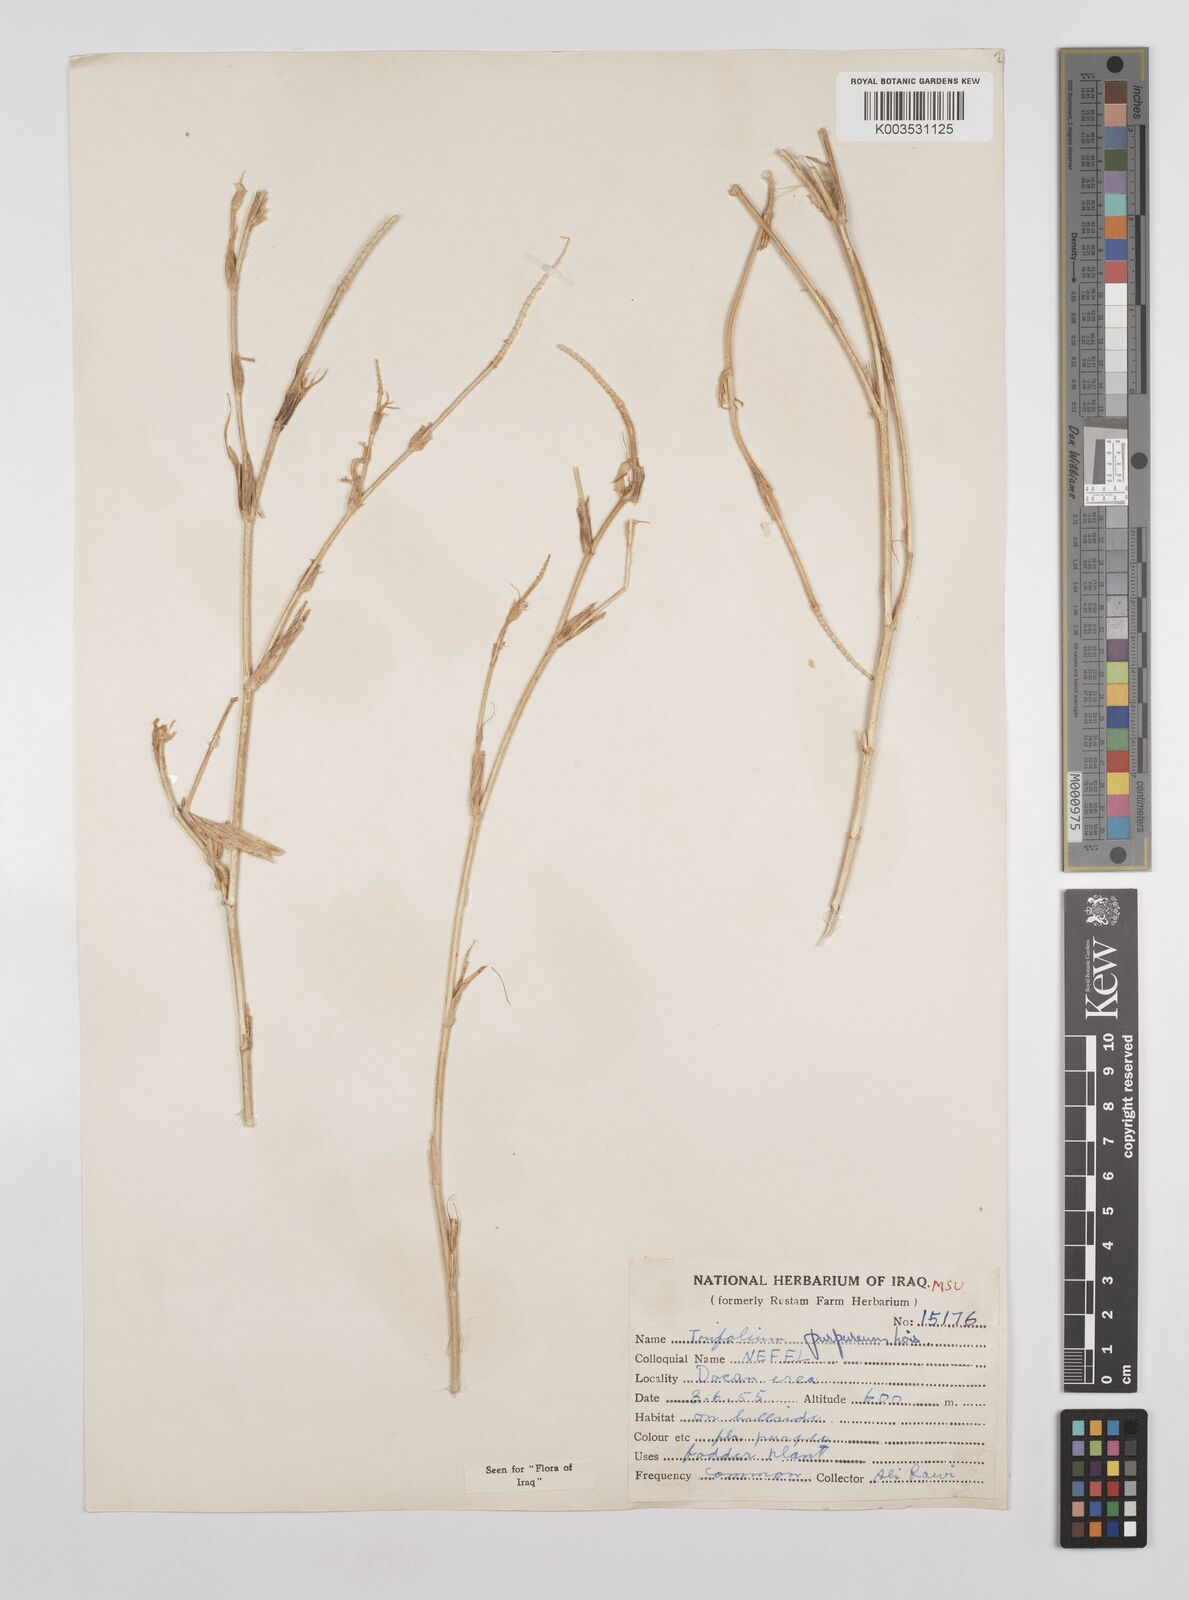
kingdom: Plantae
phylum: Tracheophyta
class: Magnoliopsida
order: Fabales
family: Fabaceae
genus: Trifolium
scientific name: Trifolium purpureum
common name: Purple clover
